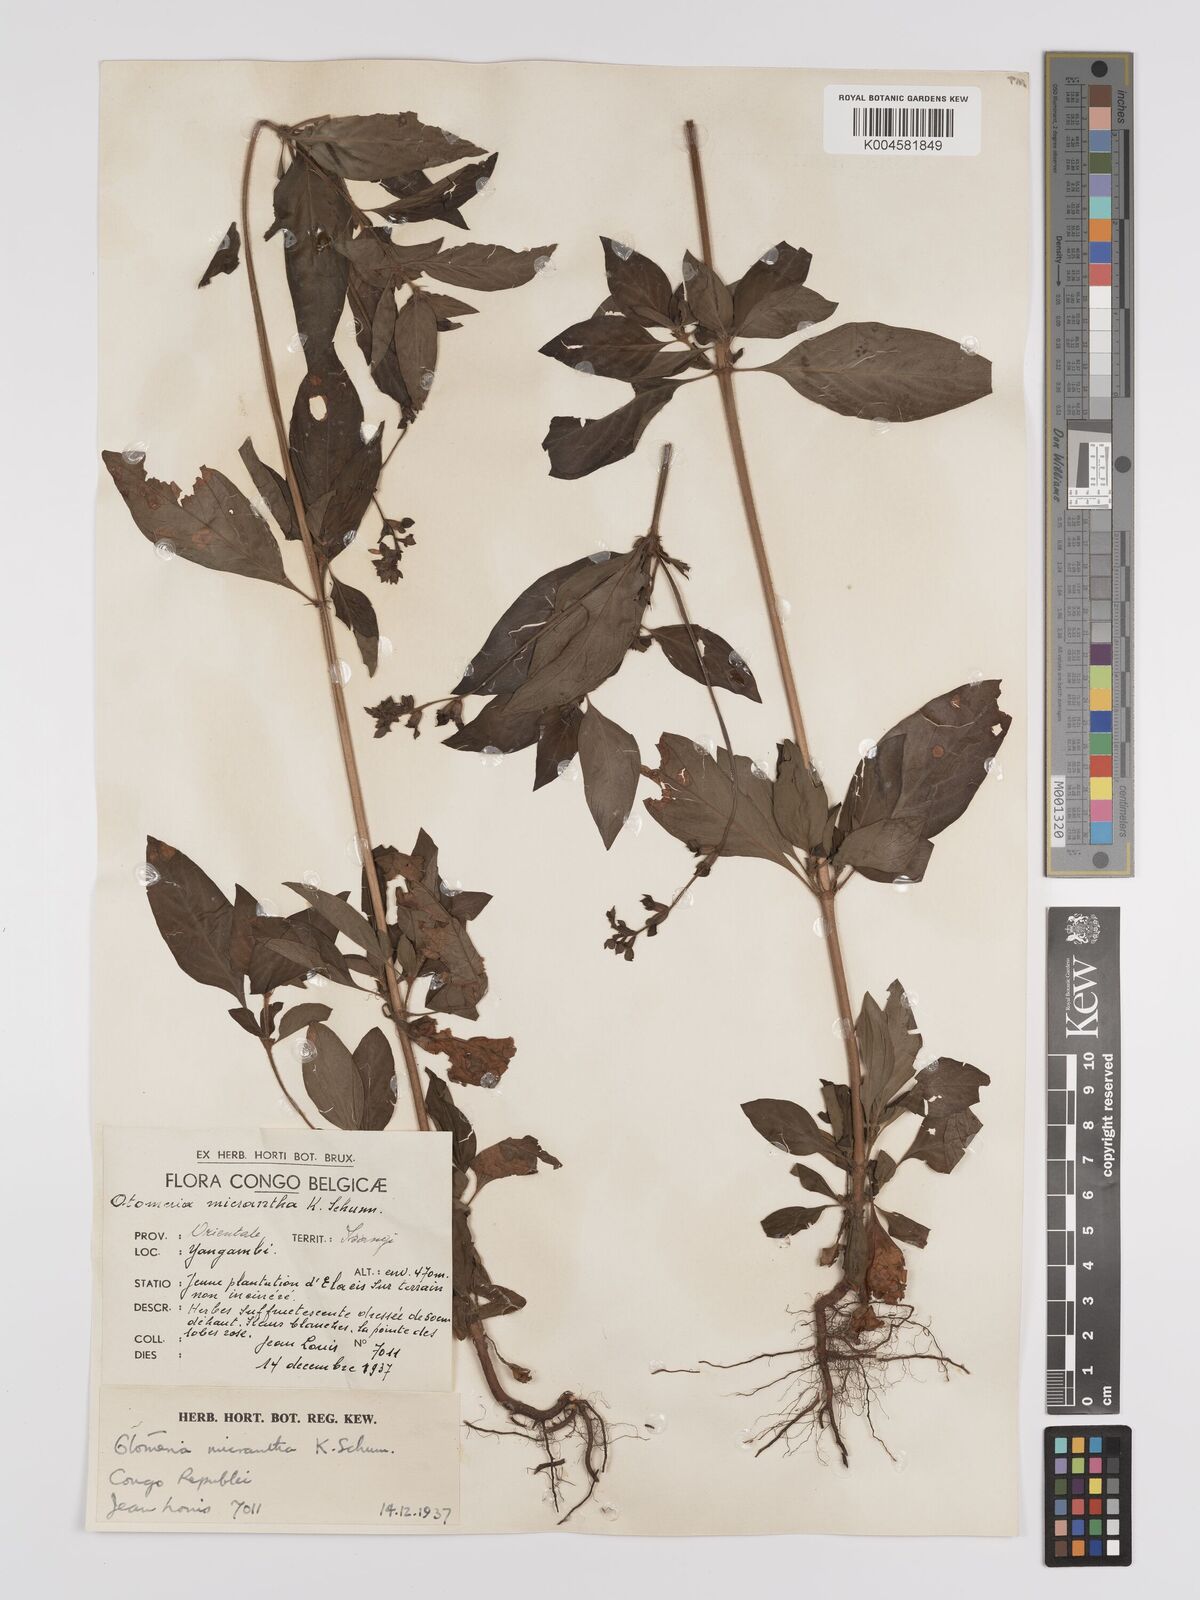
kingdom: Plantae
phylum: Tracheophyta
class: Magnoliopsida
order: Gentianales
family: Rubiaceae
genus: Otomeria
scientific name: Otomeria micrantha
